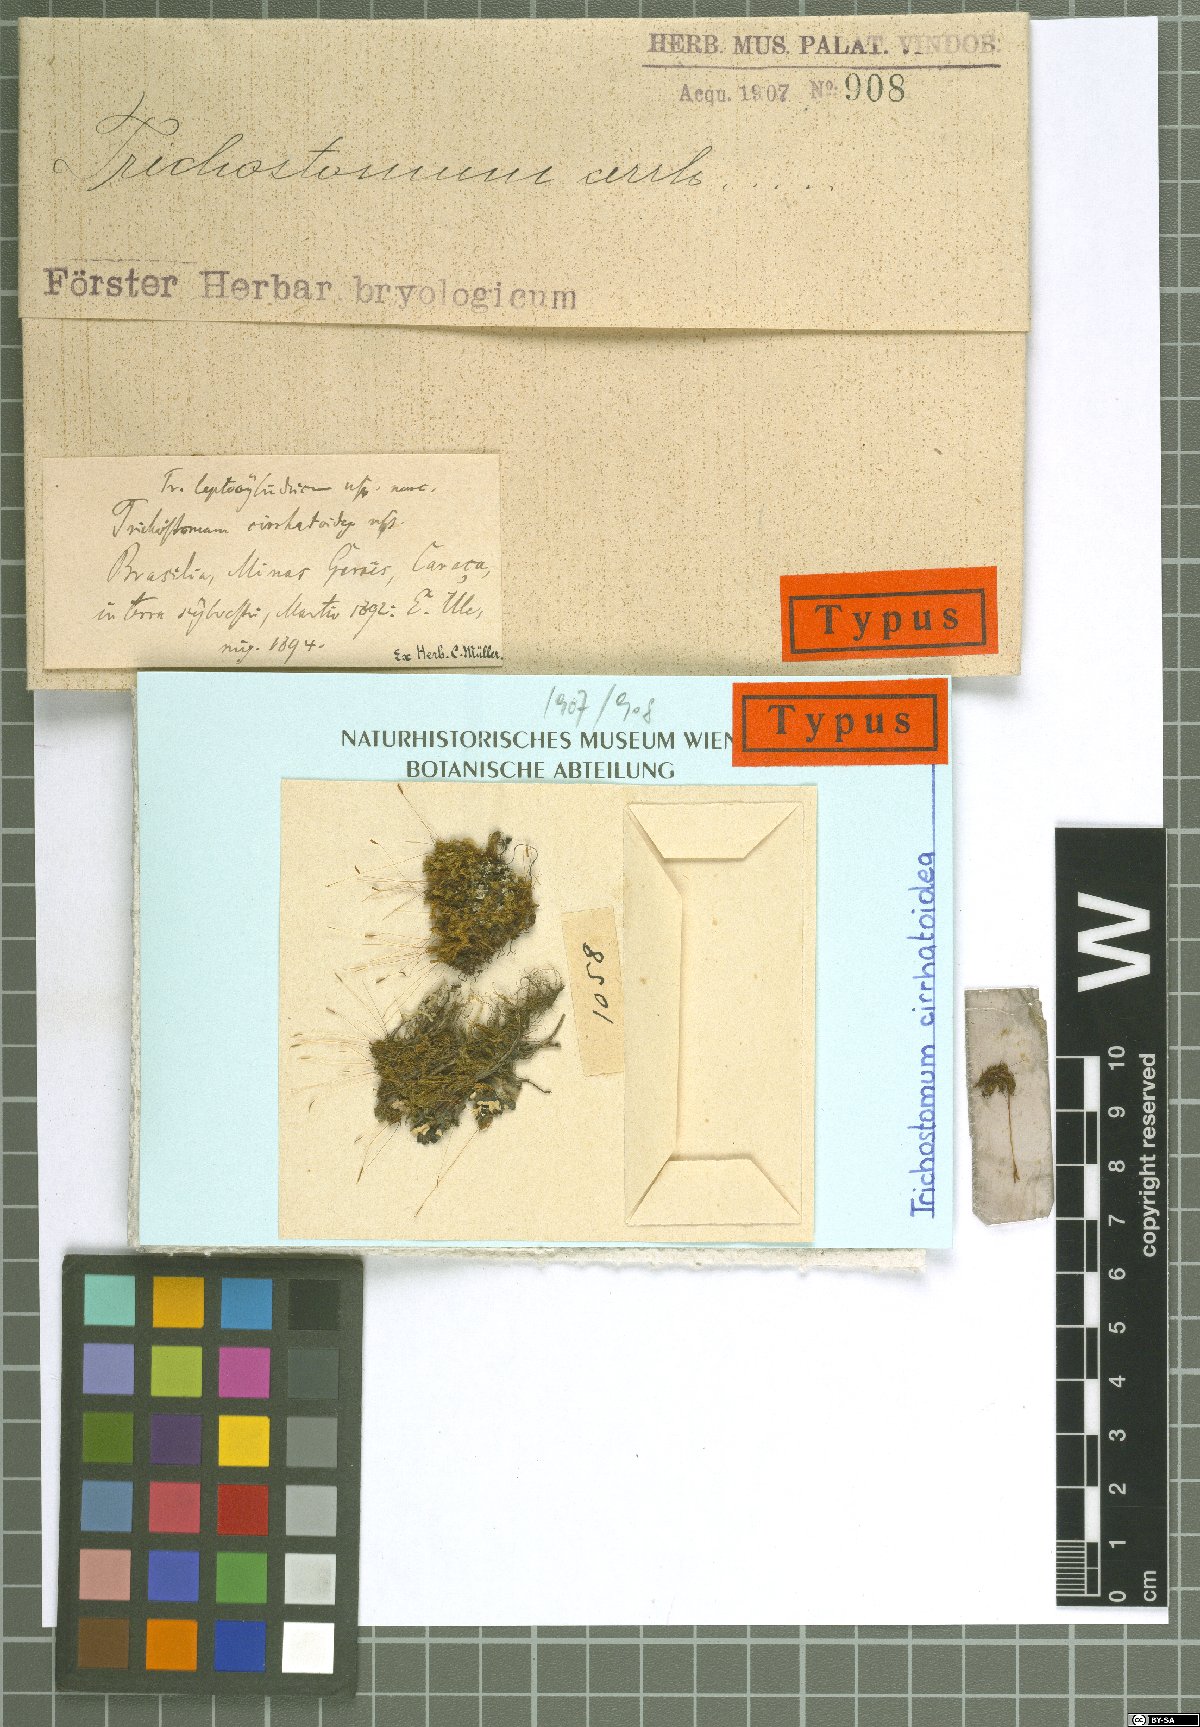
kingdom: Plantae
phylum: Bryophyta
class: Bryopsida
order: Pottiales
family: Pottiaceae
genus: Chionoloma
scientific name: Chionoloma orthodontum
